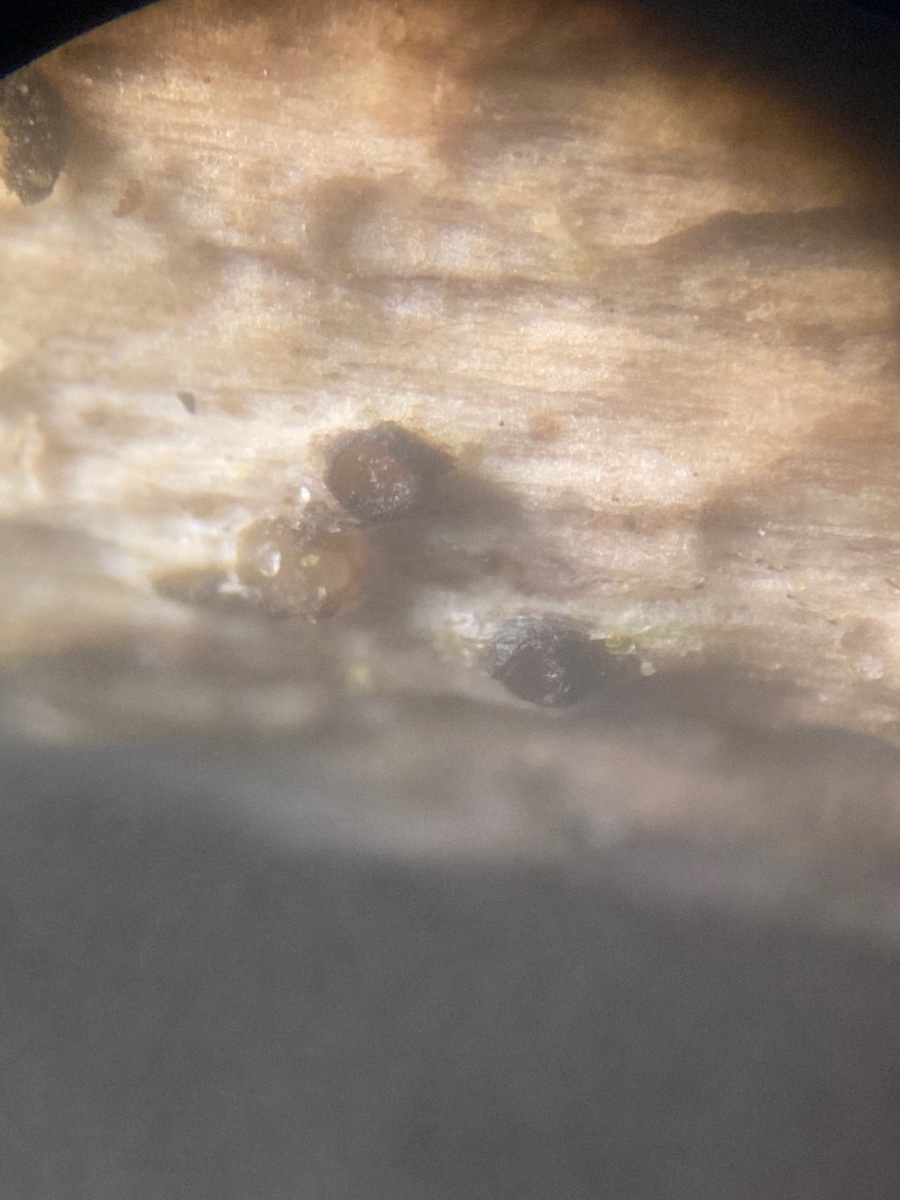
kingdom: Fungi
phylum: Ascomycota
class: Sordariomycetes
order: Xylariales
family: Hyponectriaceae
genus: Exarmidium
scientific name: Exarmidium inclusum
